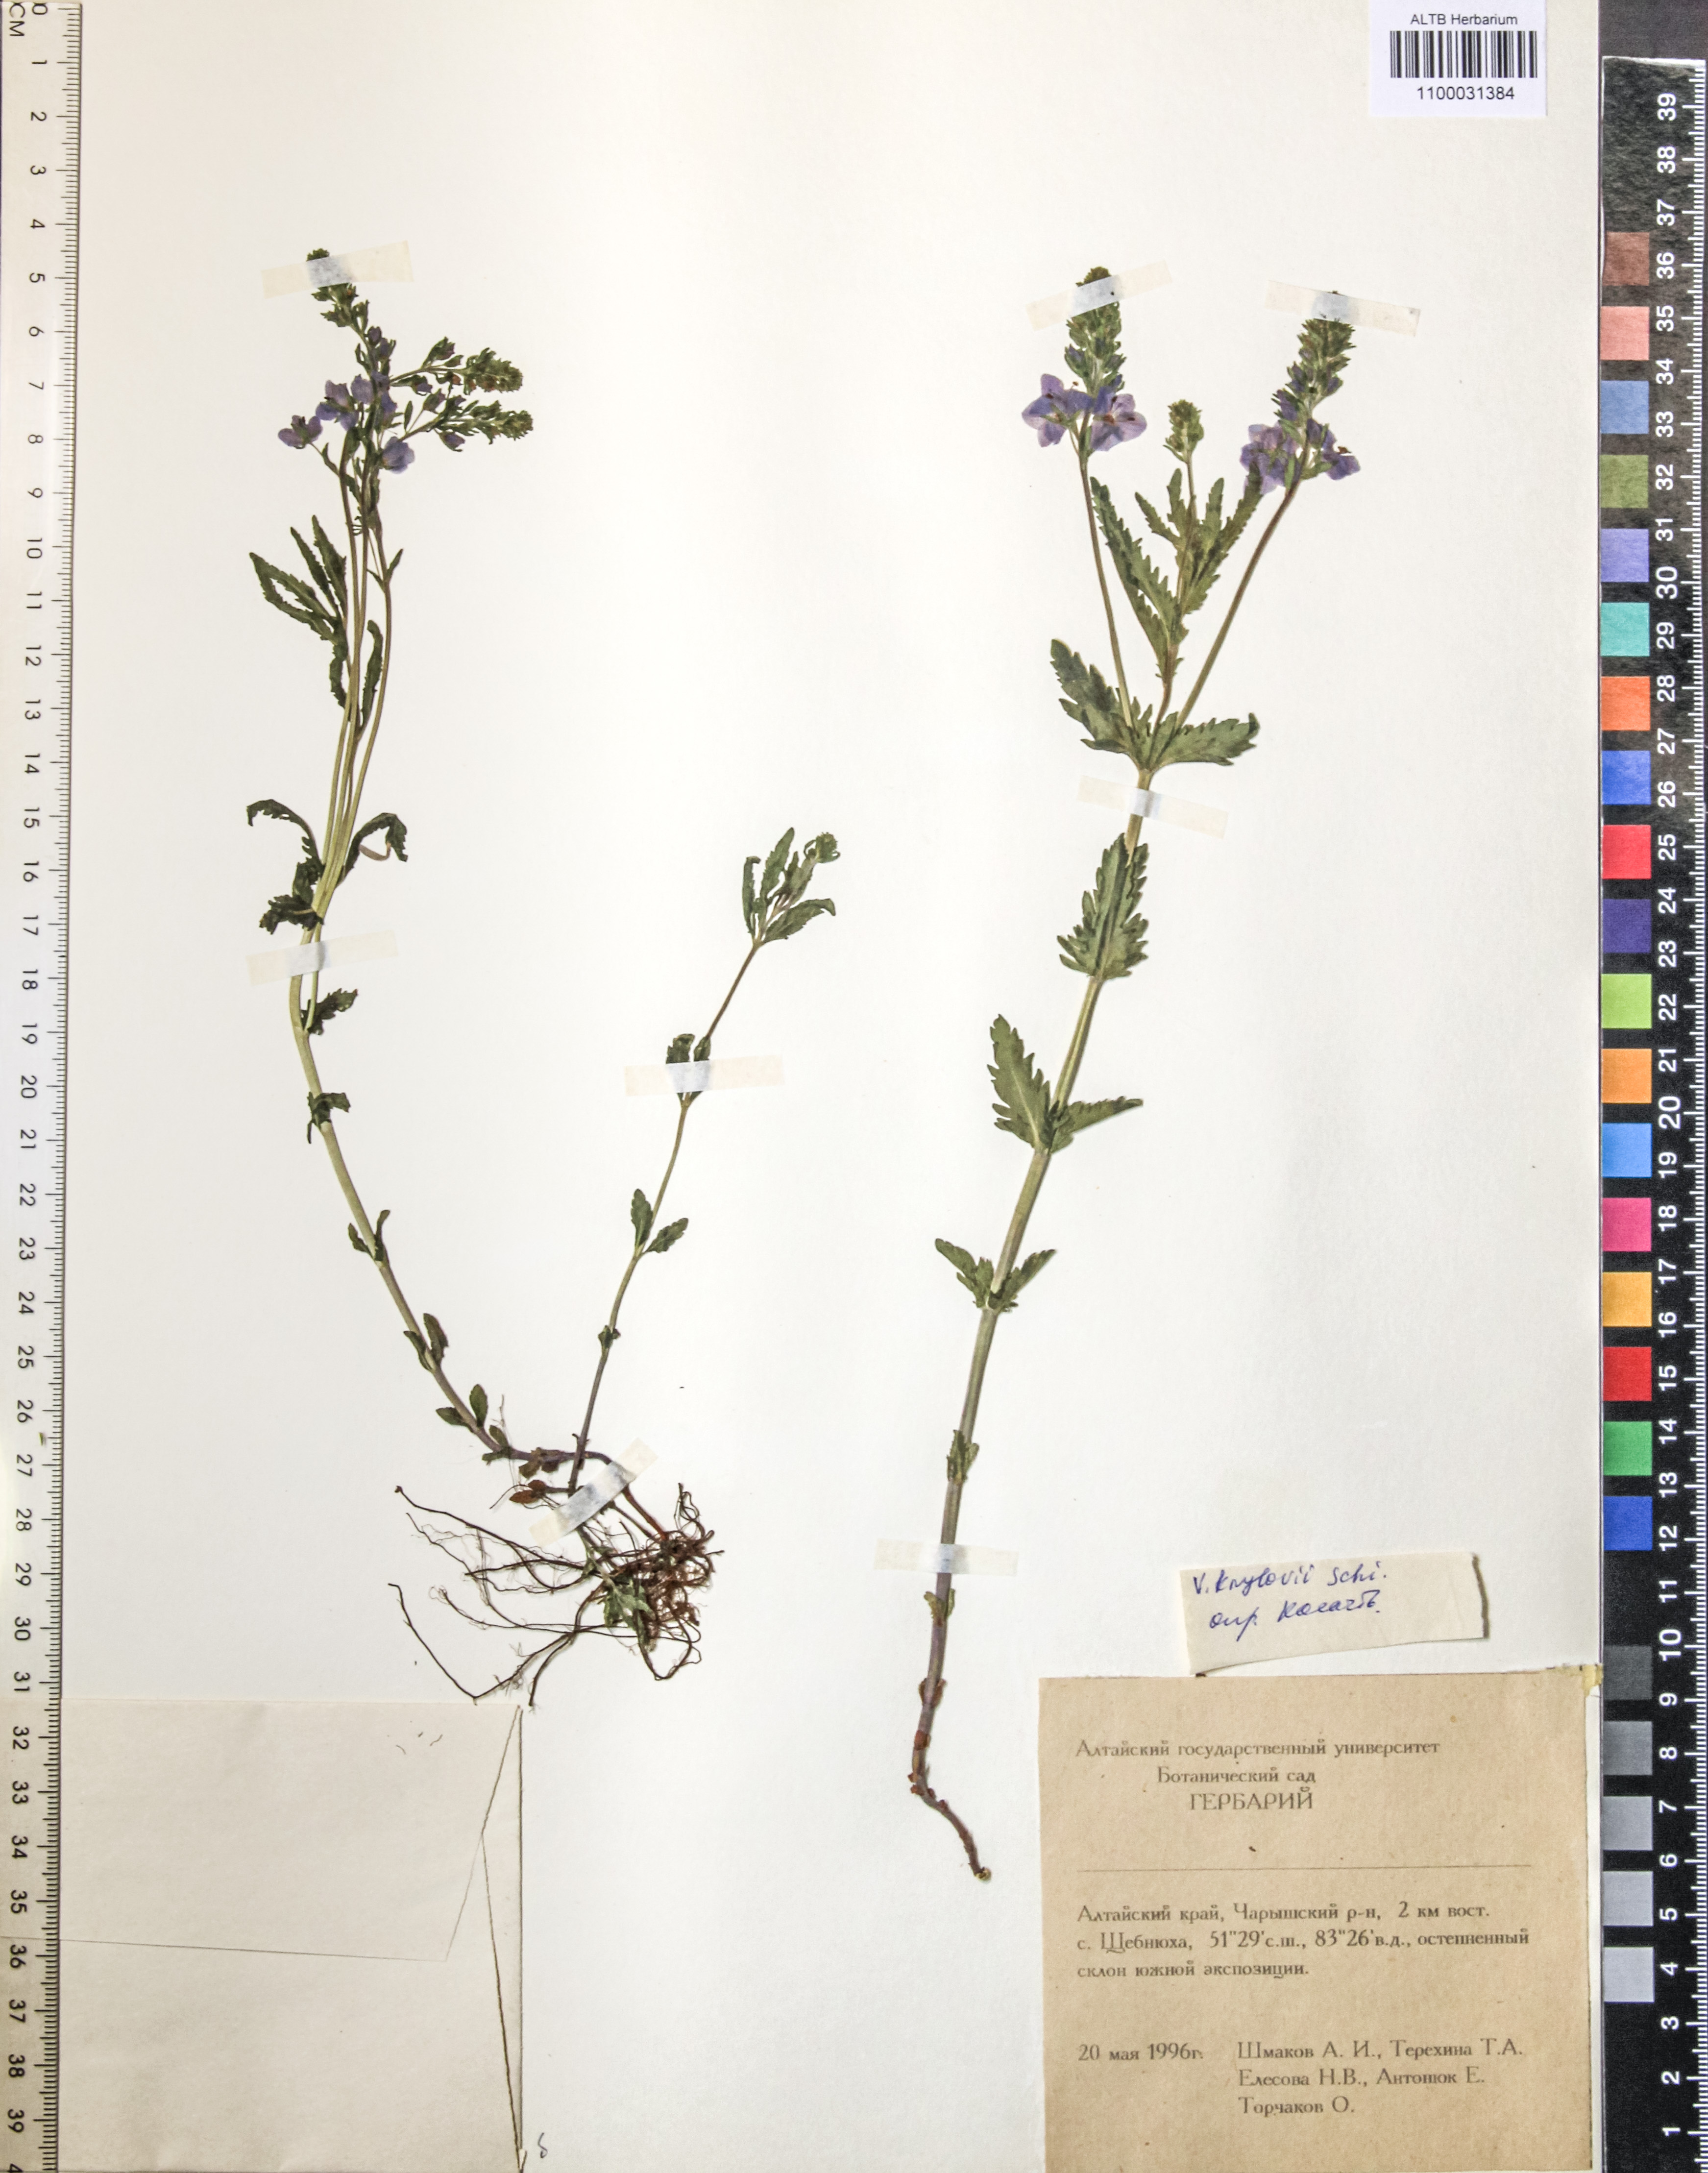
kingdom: Plantae
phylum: Tracheophyta
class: Magnoliopsida
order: Lamiales
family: Plantaginaceae
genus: Veronica
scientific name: Veronica krylovii
